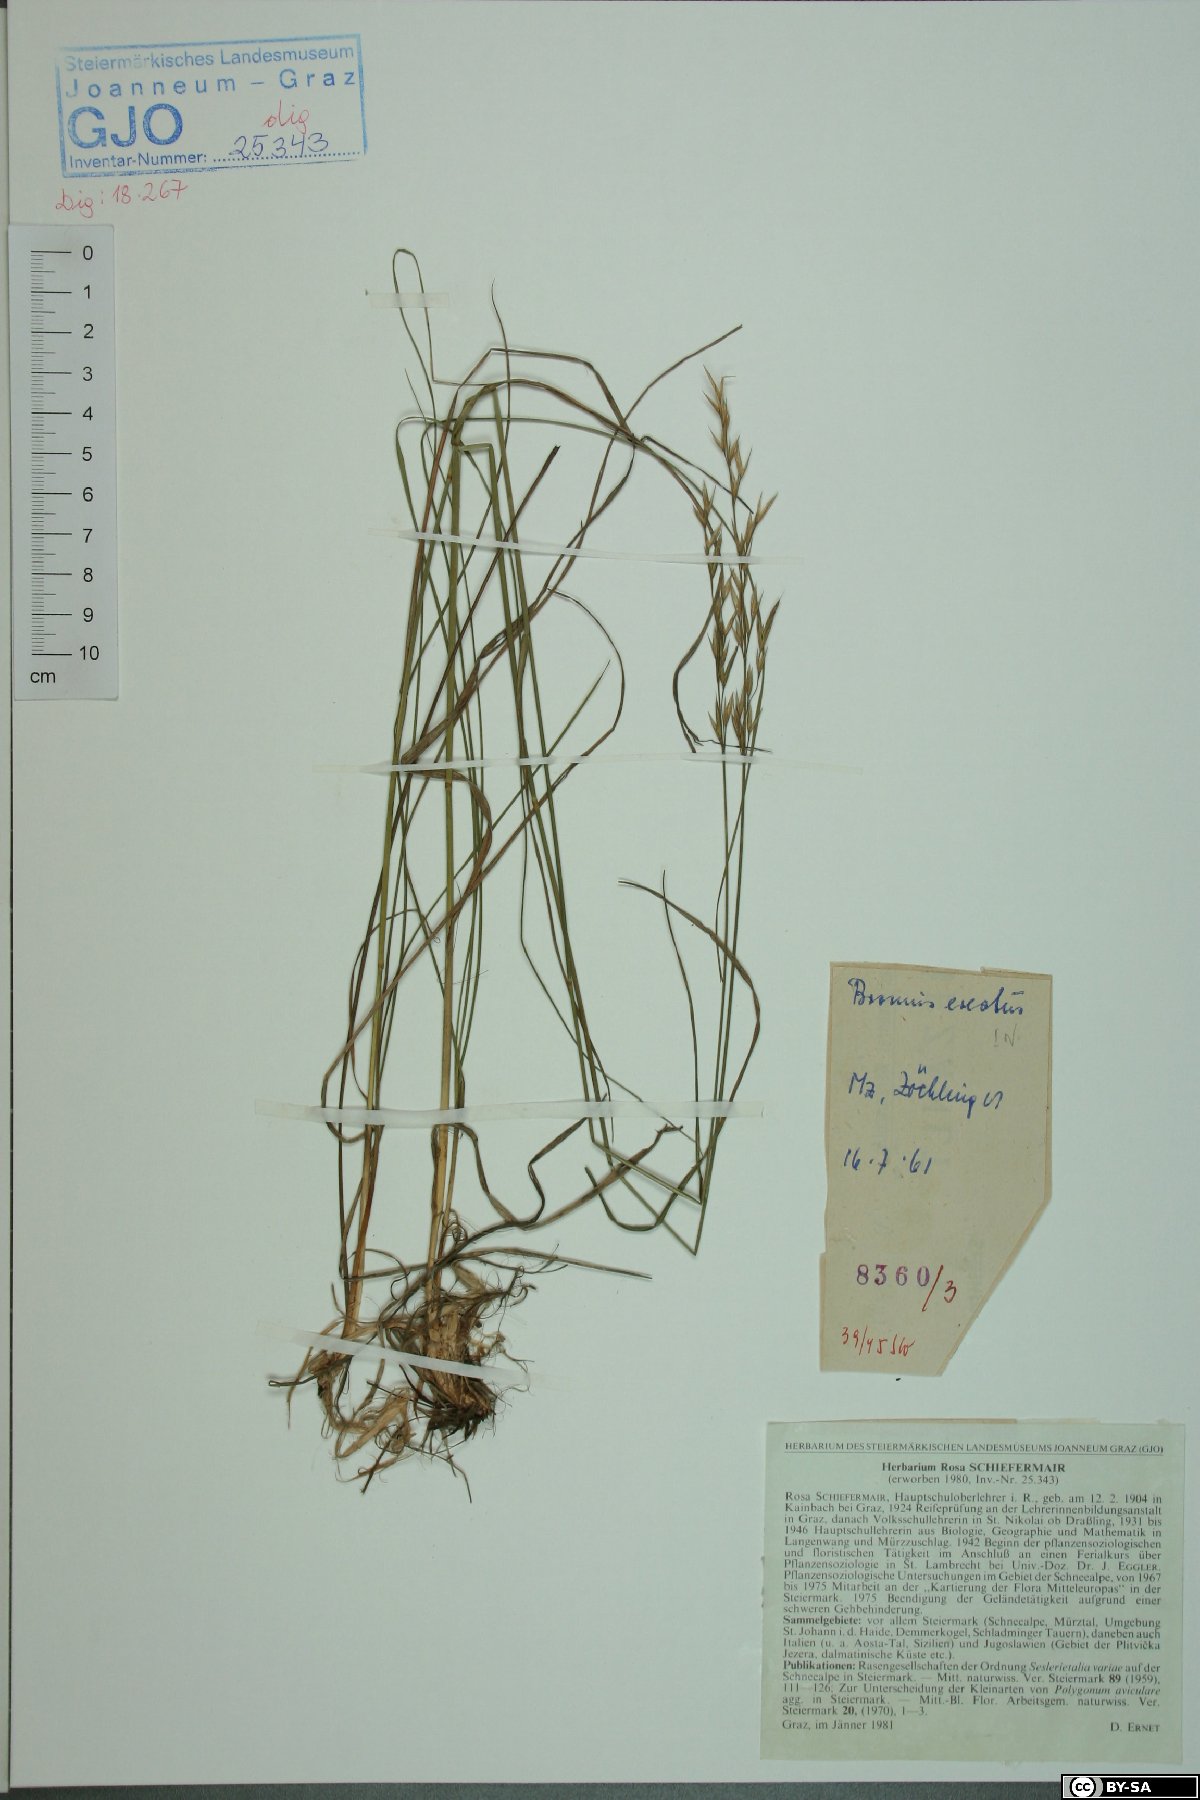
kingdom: Plantae
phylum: Tracheophyta
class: Liliopsida
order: Poales
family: Poaceae
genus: Bromus
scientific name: Bromus erectus
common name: Erect brome
